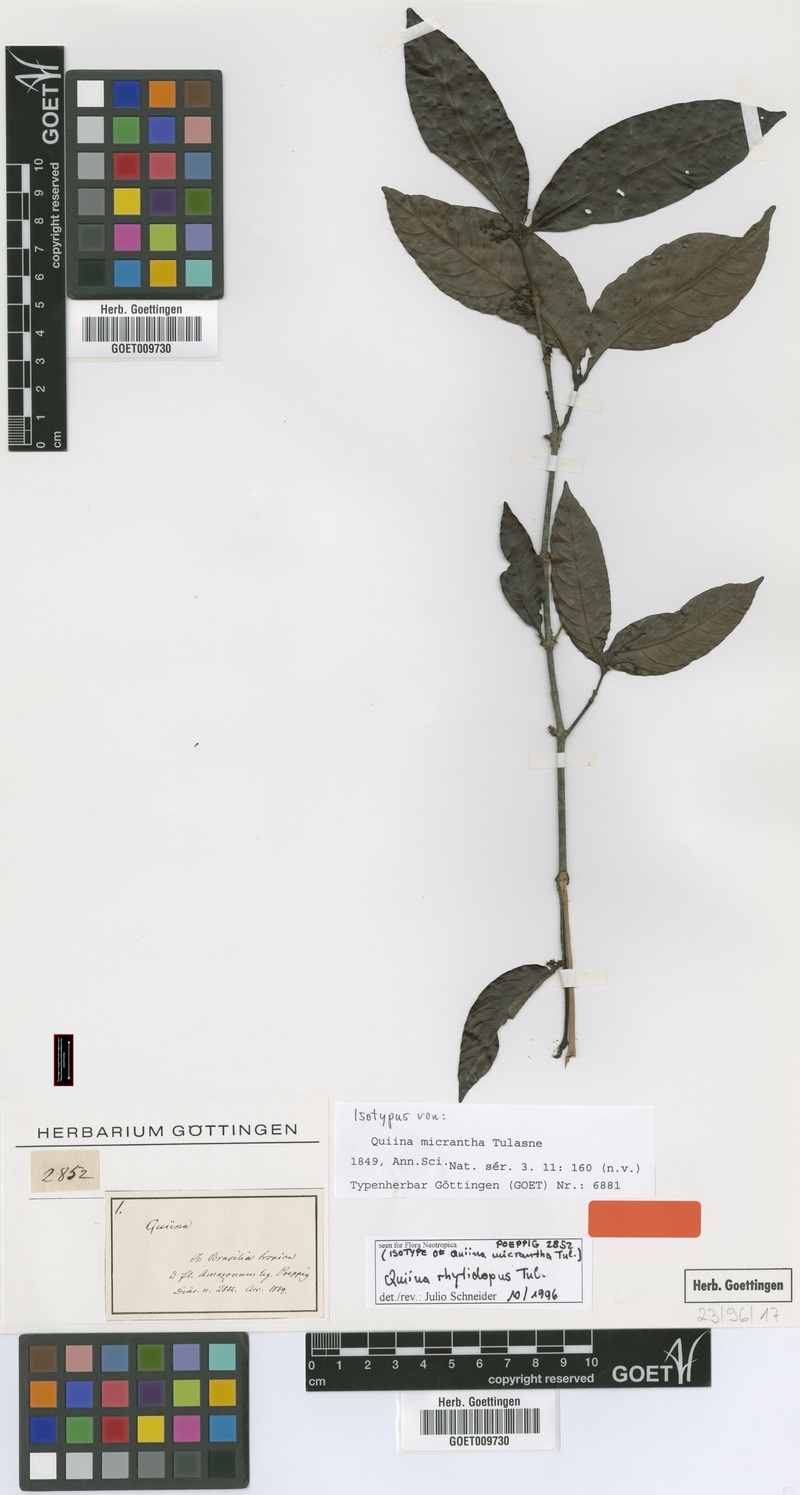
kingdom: Plantae
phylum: Tracheophyta
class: Magnoliopsida
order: Malpighiales
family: Quiinaceae
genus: Quiina
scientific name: Quiina rhytidopus
